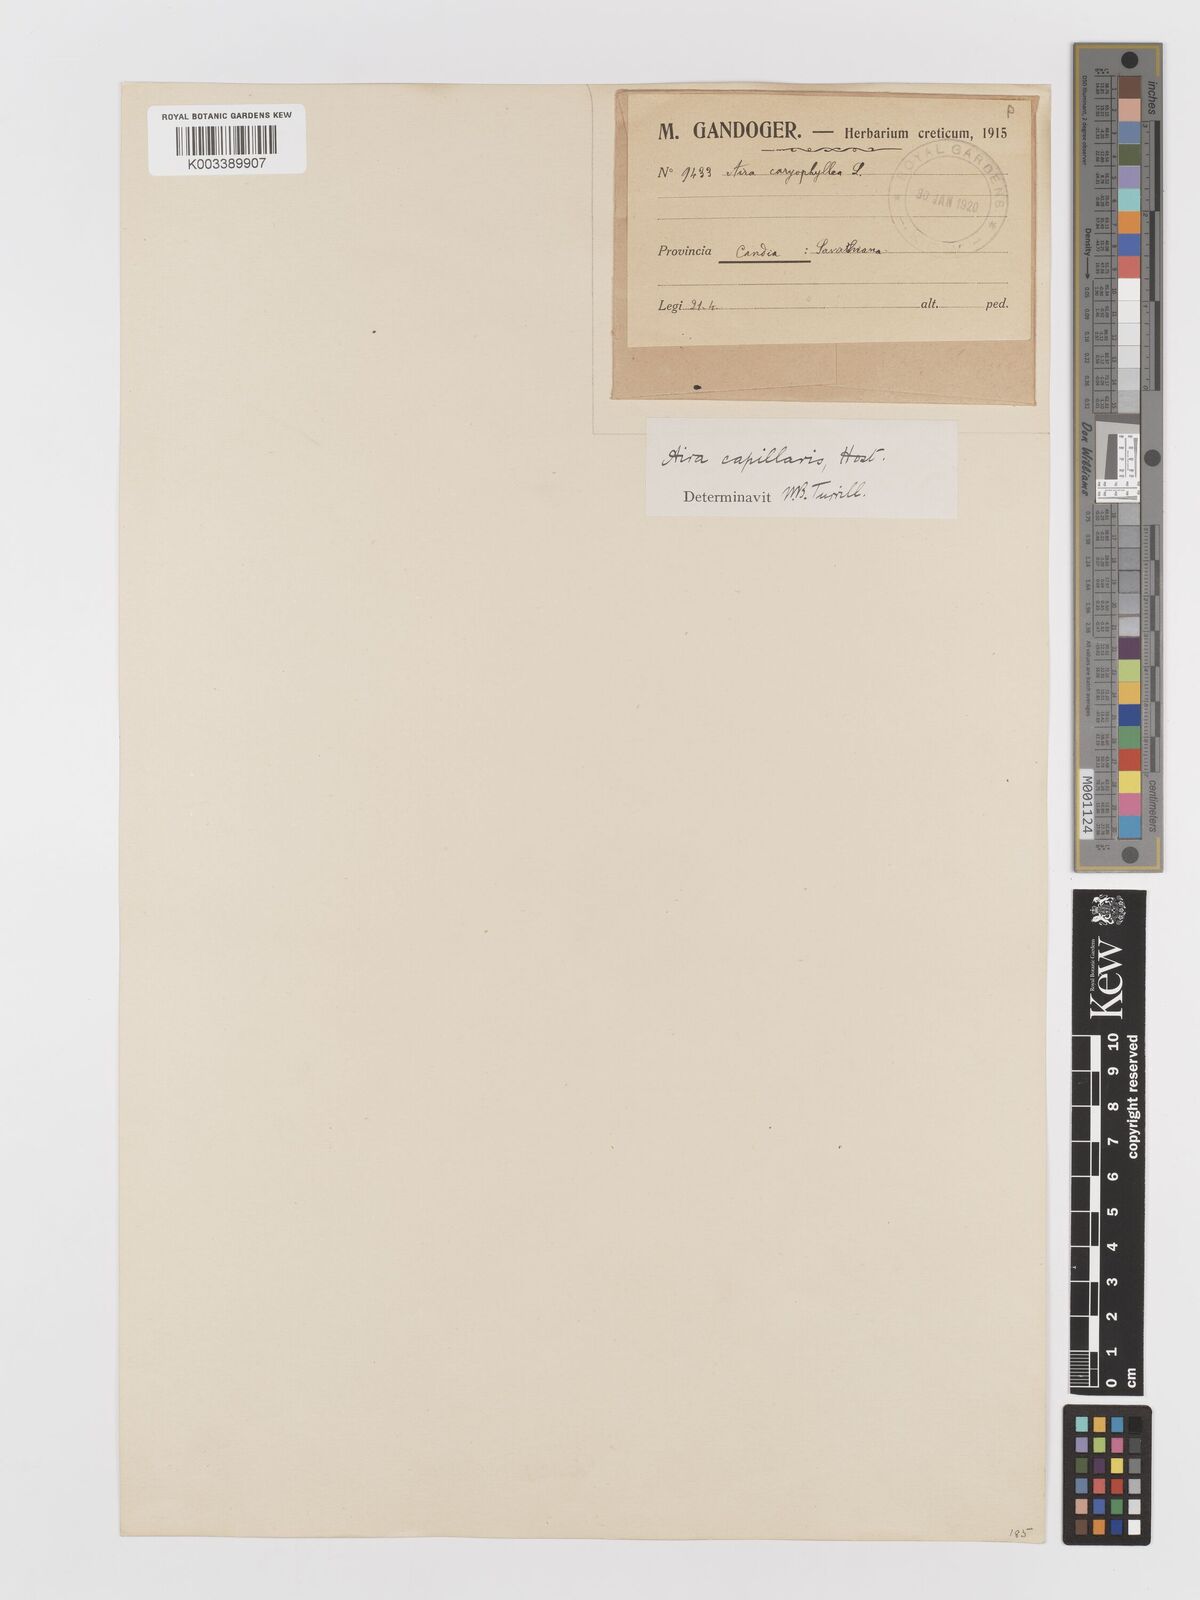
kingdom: Plantae
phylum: Tracheophyta
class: Liliopsida
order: Poales
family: Poaceae
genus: Aira
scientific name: Aira elegans
